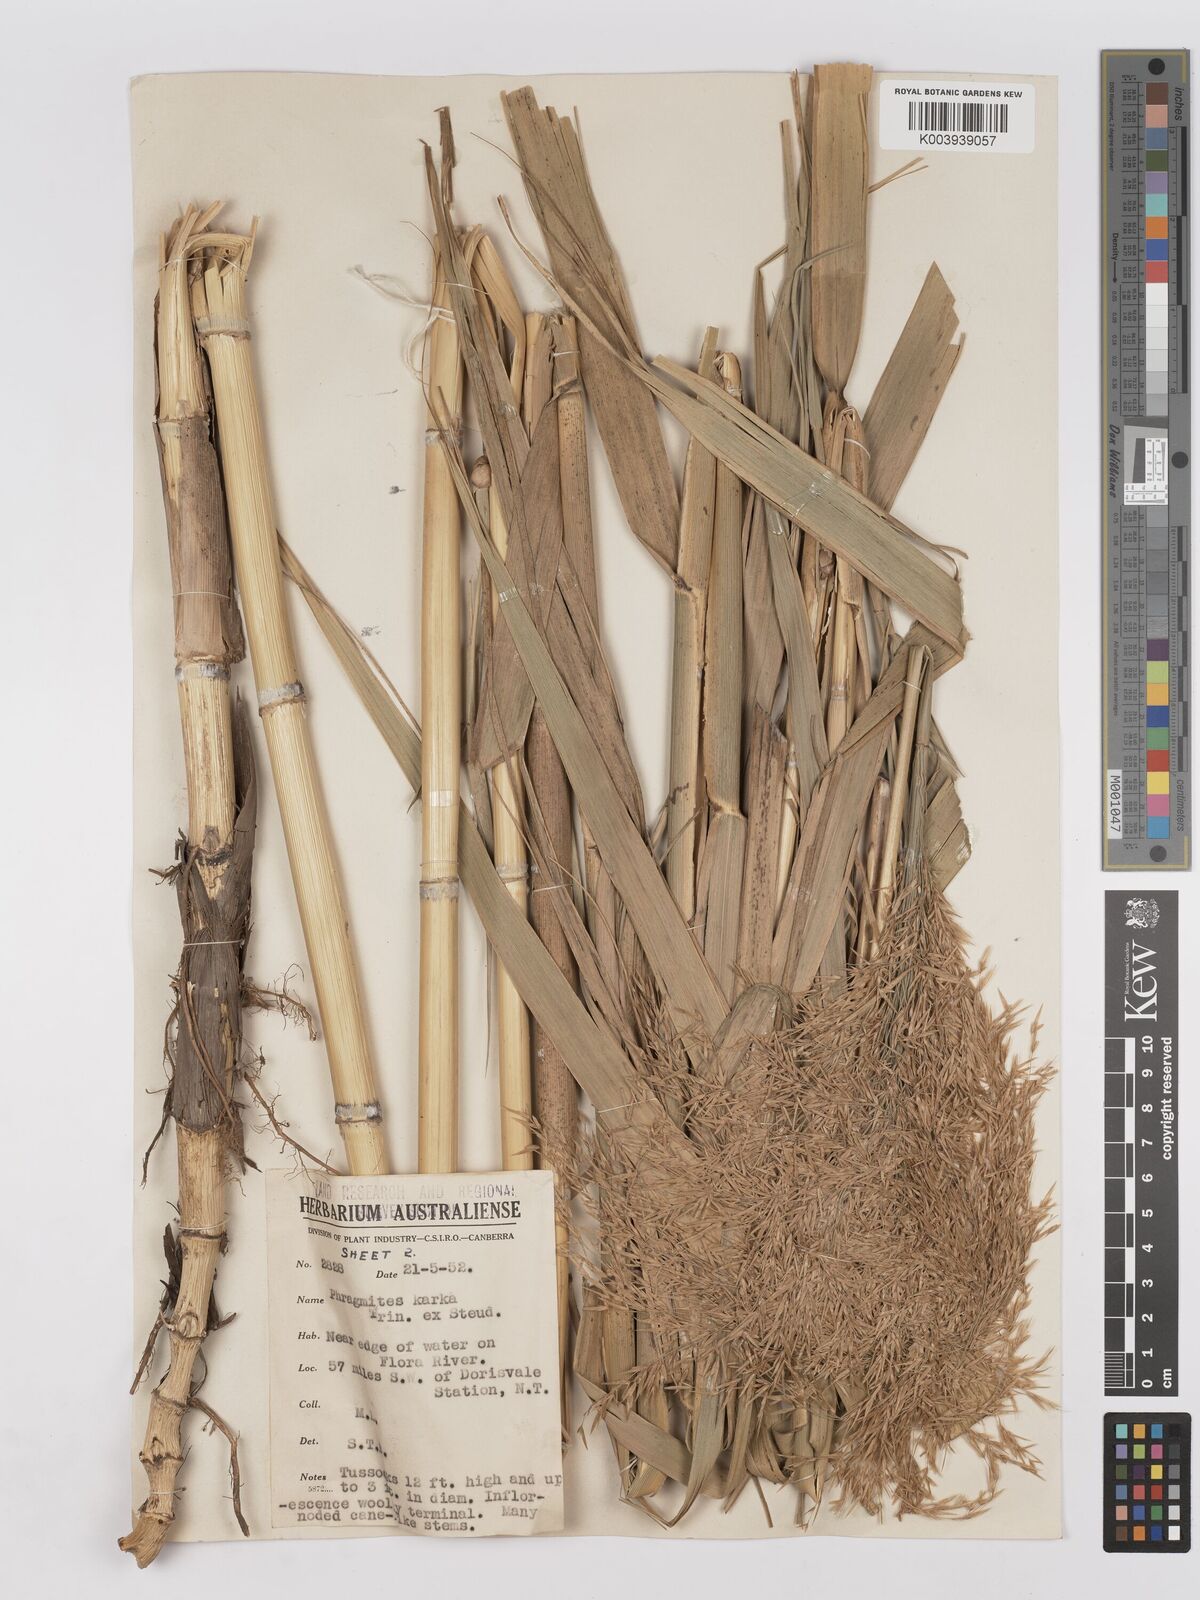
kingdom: Plantae
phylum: Tracheophyta
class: Liliopsida
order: Poales
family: Poaceae
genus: Phragmites
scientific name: Phragmites karka
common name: Tropical reed
